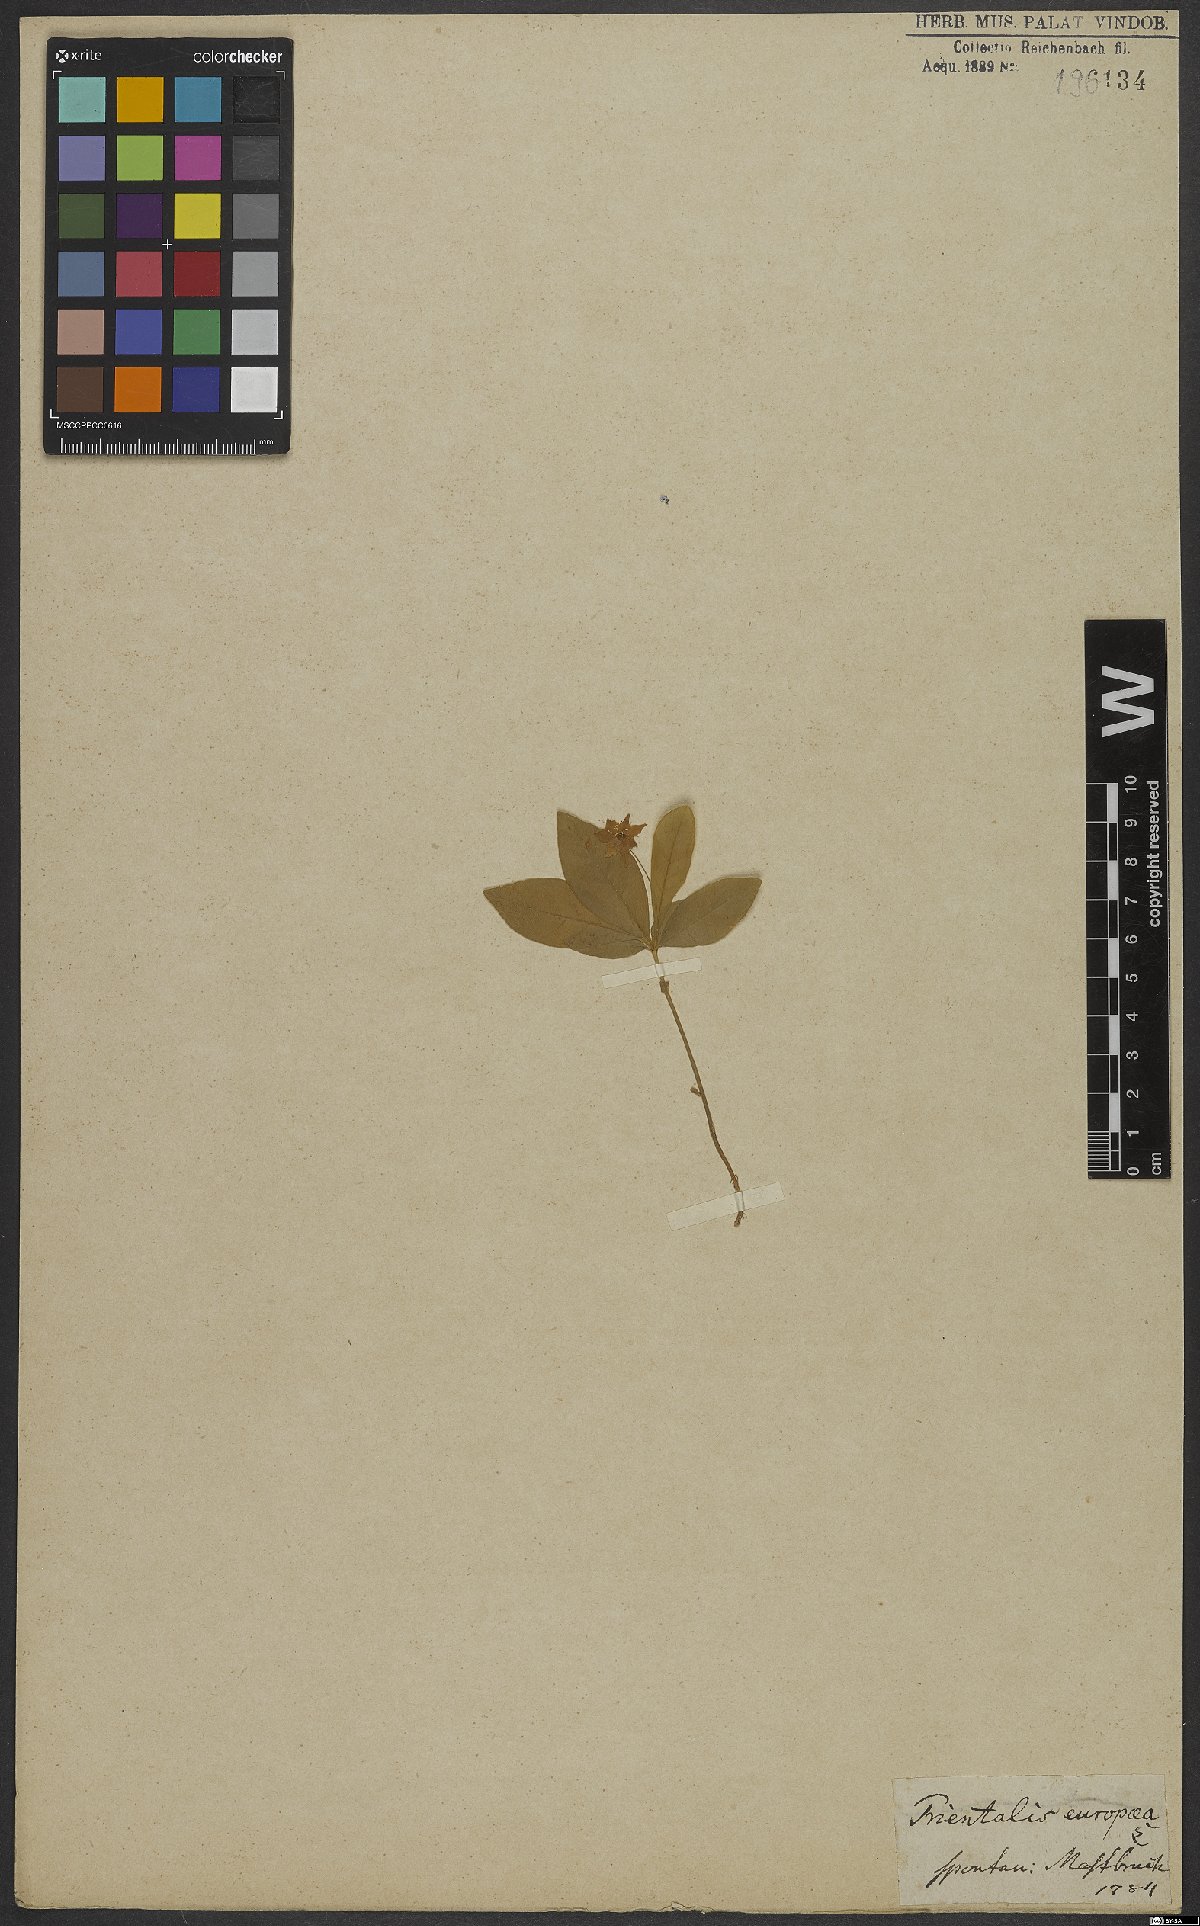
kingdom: Plantae
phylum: Tracheophyta
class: Magnoliopsida
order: Ericales
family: Primulaceae
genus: Lysimachia
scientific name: Lysimachia europaea
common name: Arctic starflower
